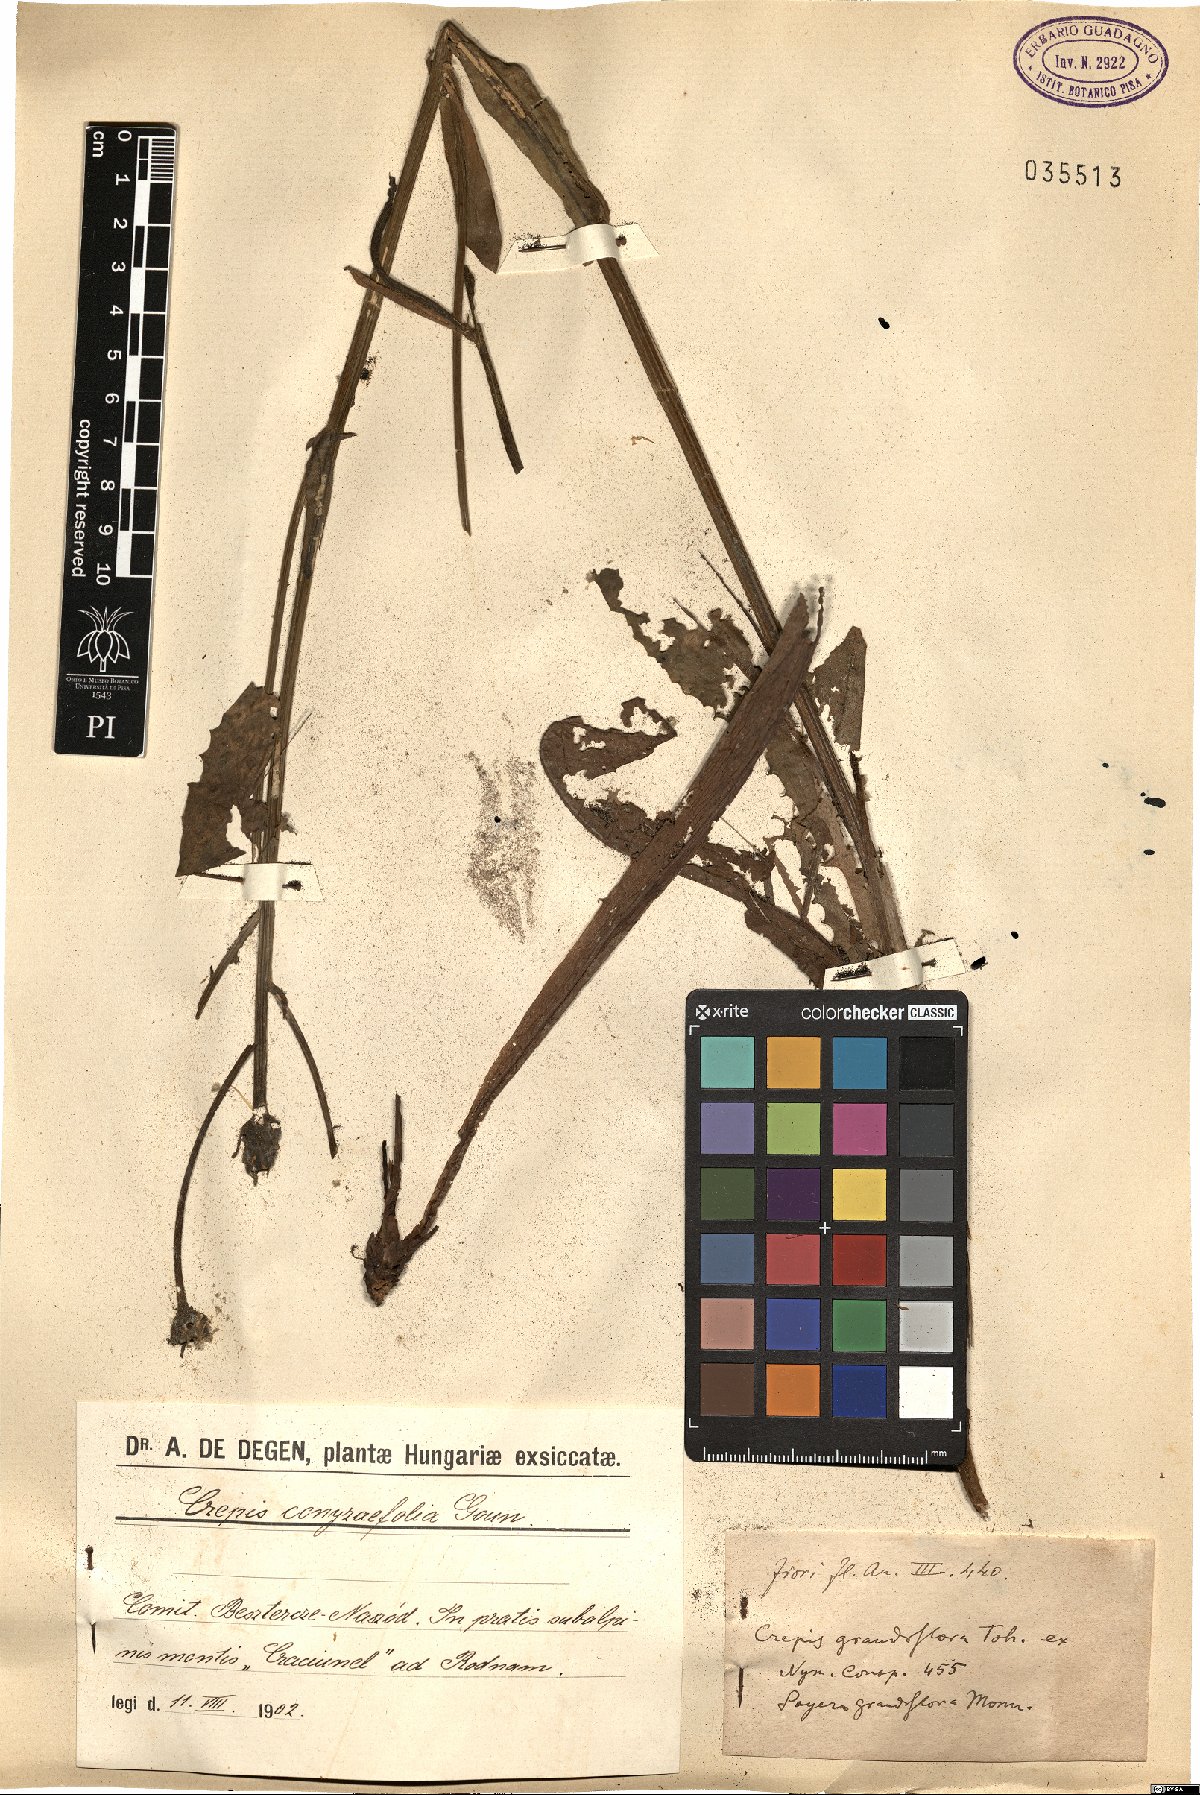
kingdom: Plantae
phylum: Tracheophyta
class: Magnoliopsida
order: Asterales
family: Asteraceae
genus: Crepis
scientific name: Crepis pyrenaica
